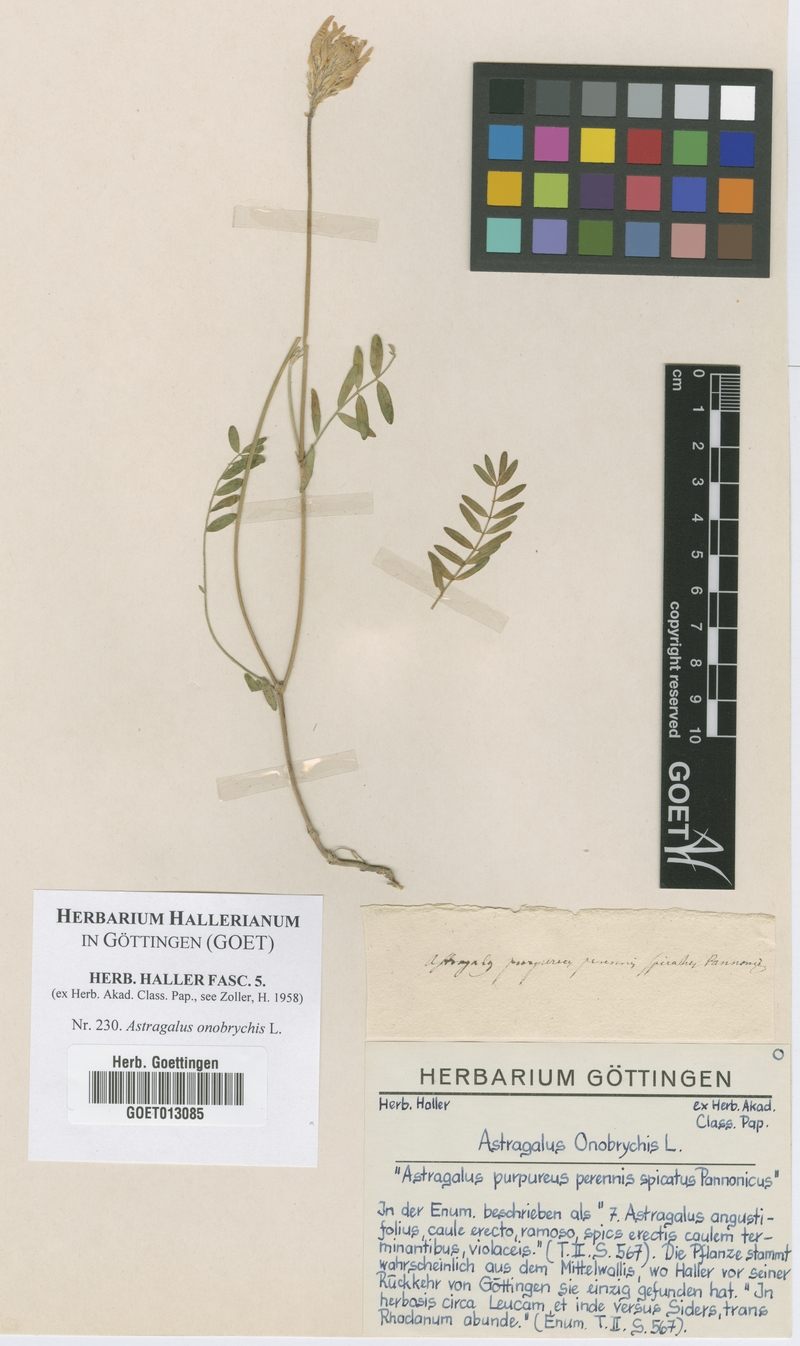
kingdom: Plantae
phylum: Tracheophyta
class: Magnoliopsida
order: Fabales
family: Fabaceae
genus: Astragalus
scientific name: Astragalus onobrychis
